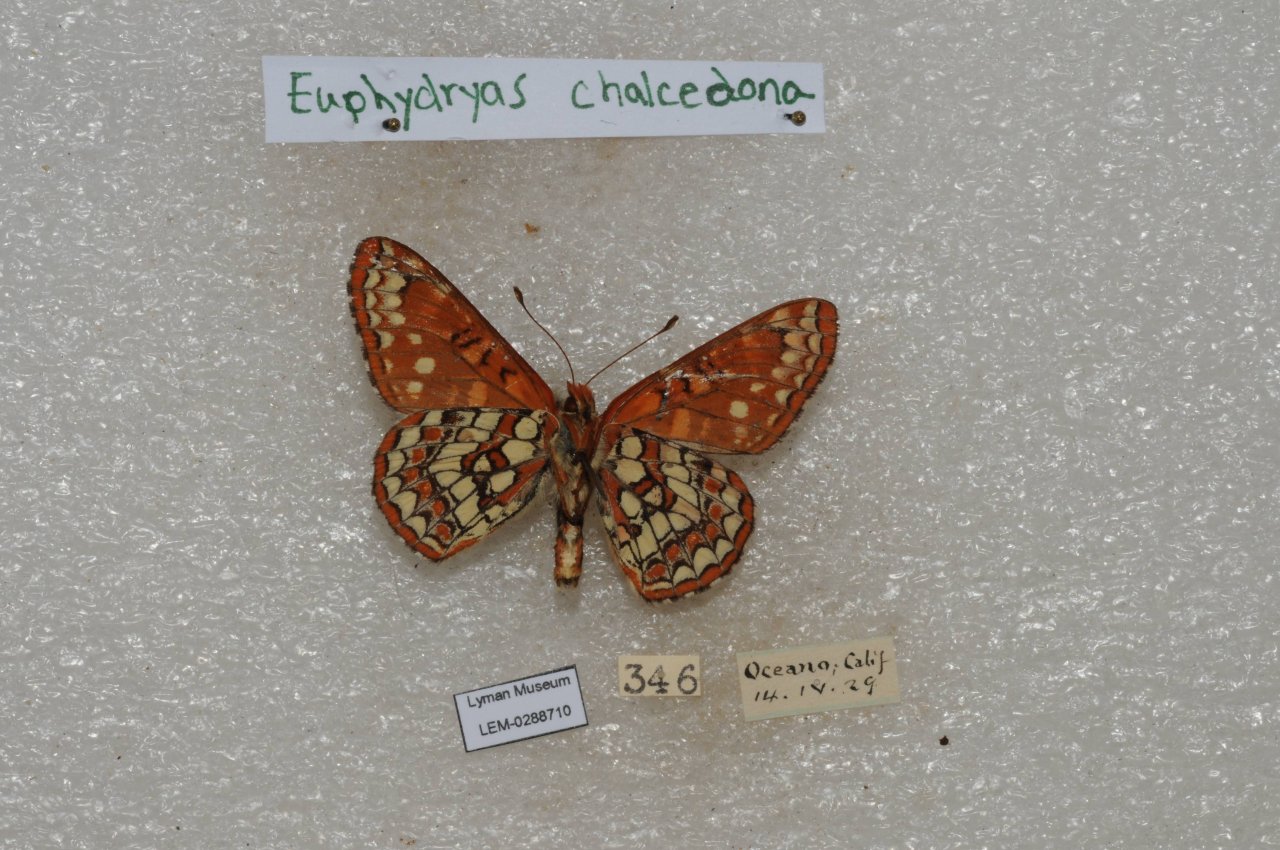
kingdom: Animalia
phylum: Arthropoda
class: Insecta
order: Lepidoptera
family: Nymphalidae
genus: Occidryas
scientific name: Occidryas chalcedona
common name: Chalcedon Checkerspot
